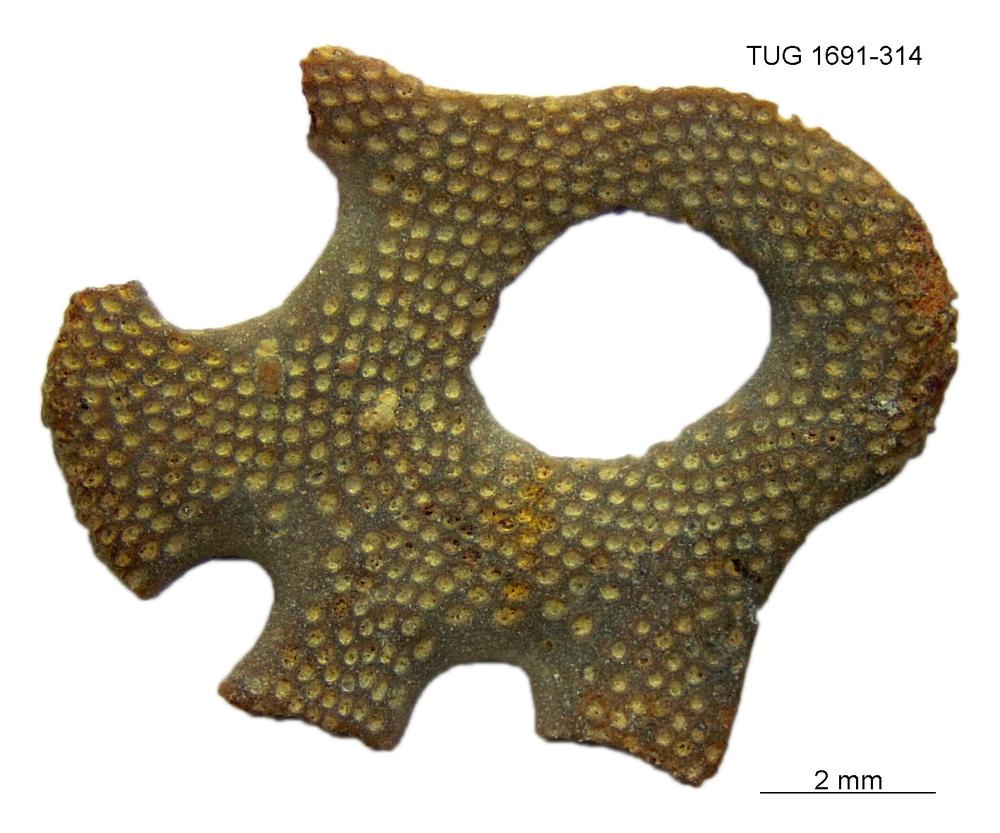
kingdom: Animalia
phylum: Bryozoa
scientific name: Bryozoa
